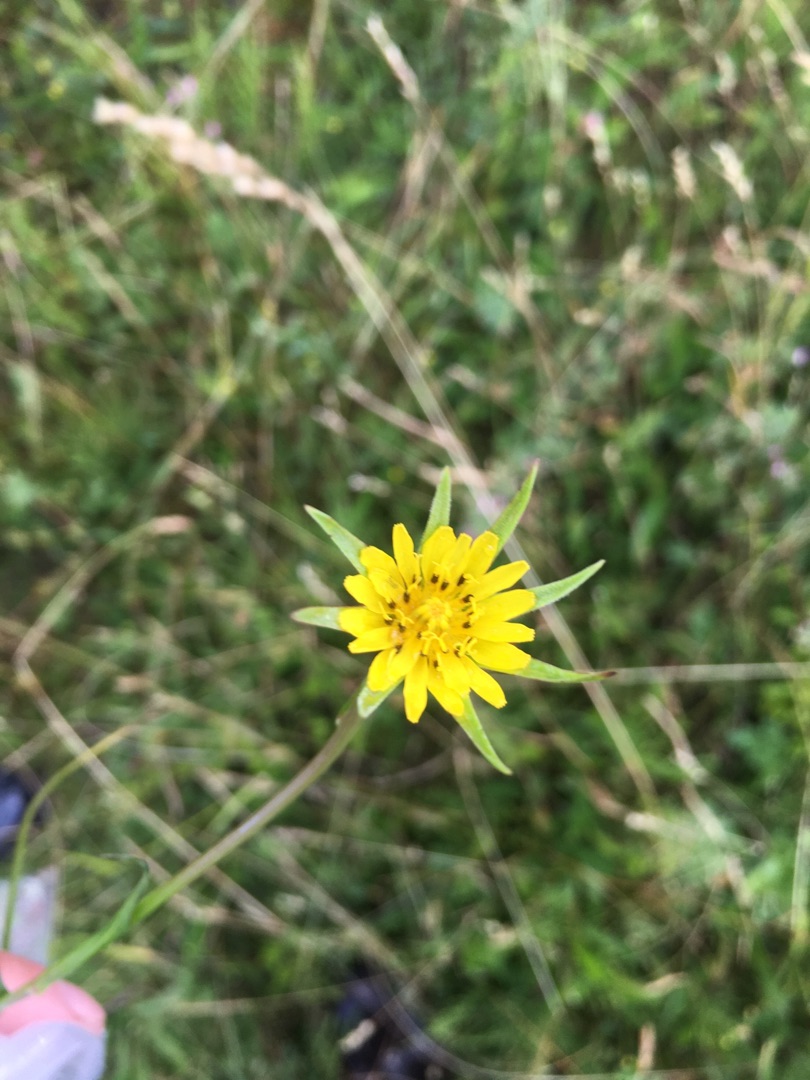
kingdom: Plantae
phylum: Tracheophyta
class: Magnoliopsida
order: Asterales
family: Asteraceae
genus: Tragopogon
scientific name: Tragopogon minor
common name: Småkronet gedeskæg
